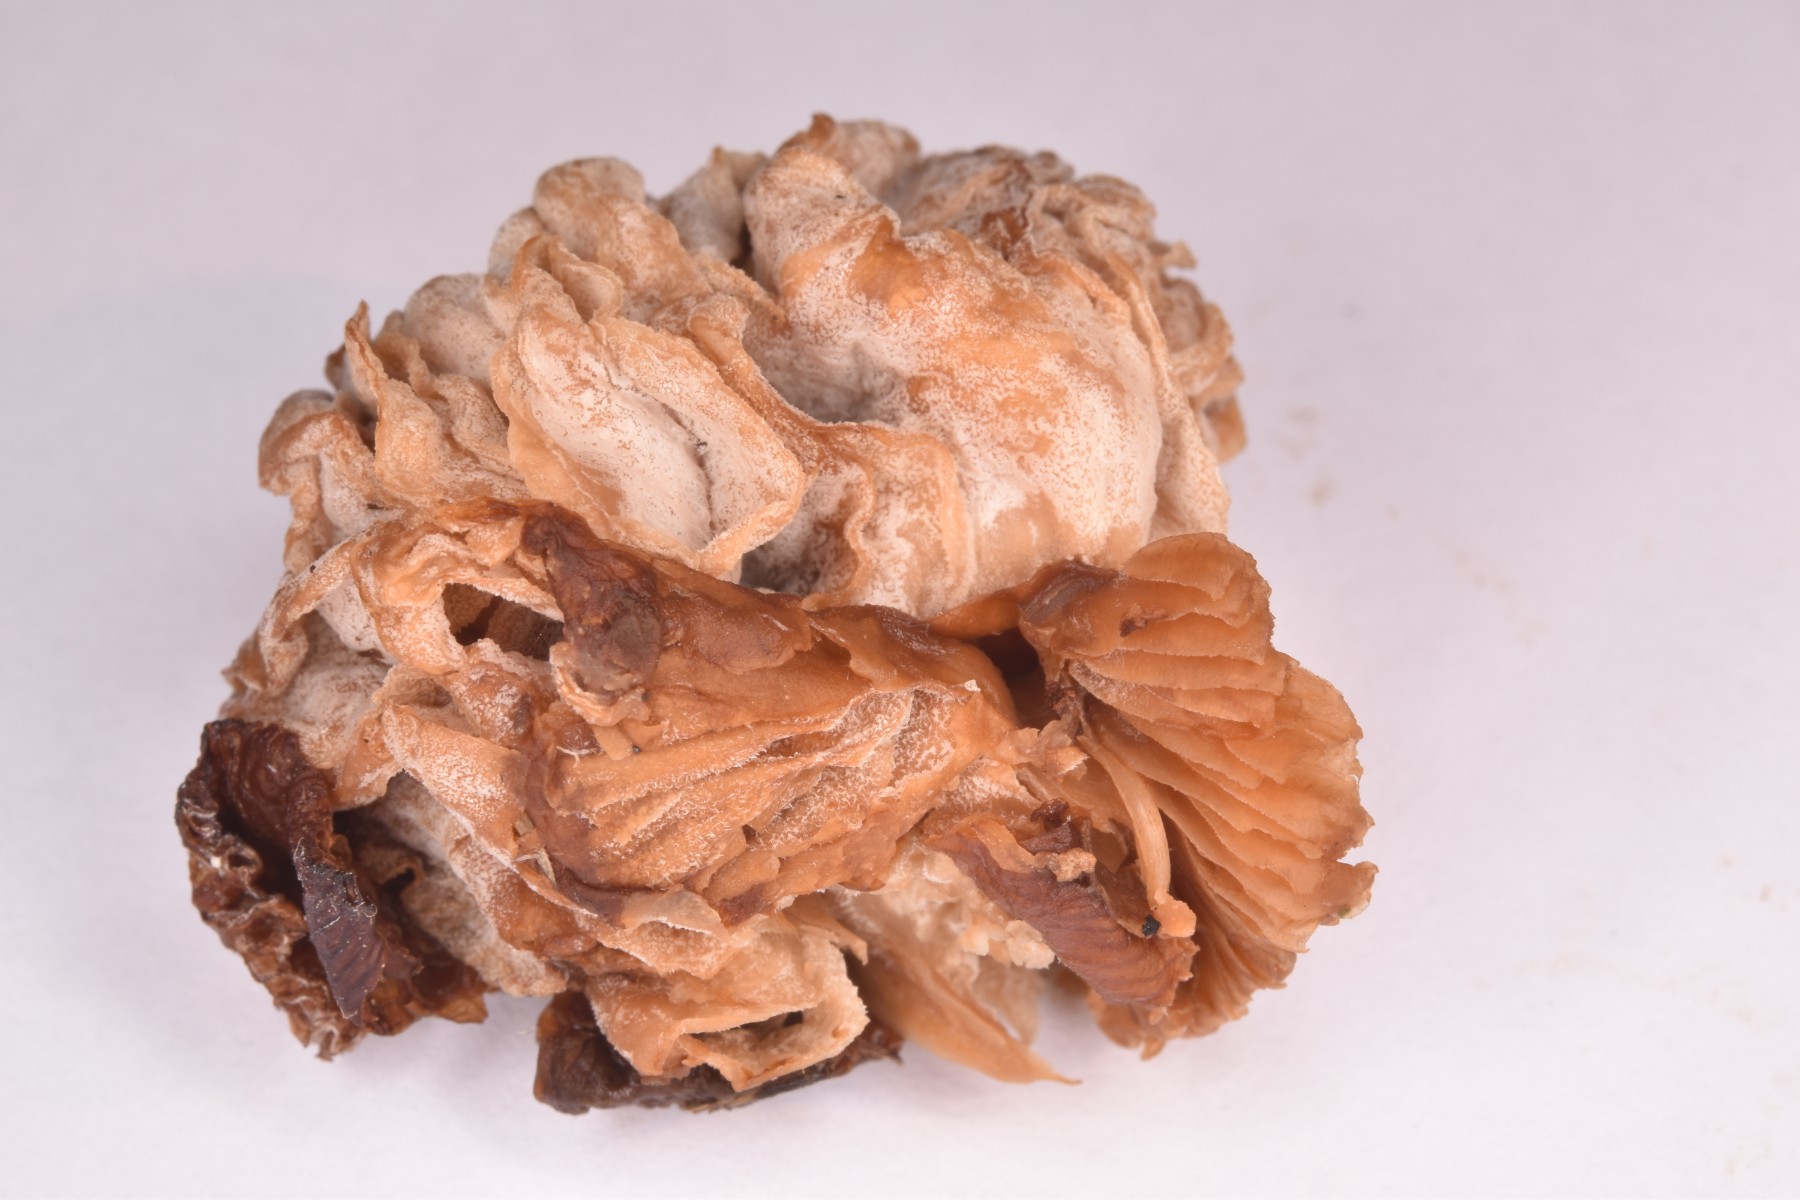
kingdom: Fungi
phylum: Ascomycota
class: Sordariomycetes
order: Hypocreales
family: Hypocreaceae
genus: Hypomyces
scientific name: Hypomyces tubariicola
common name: fnughat-snylteskorpe
